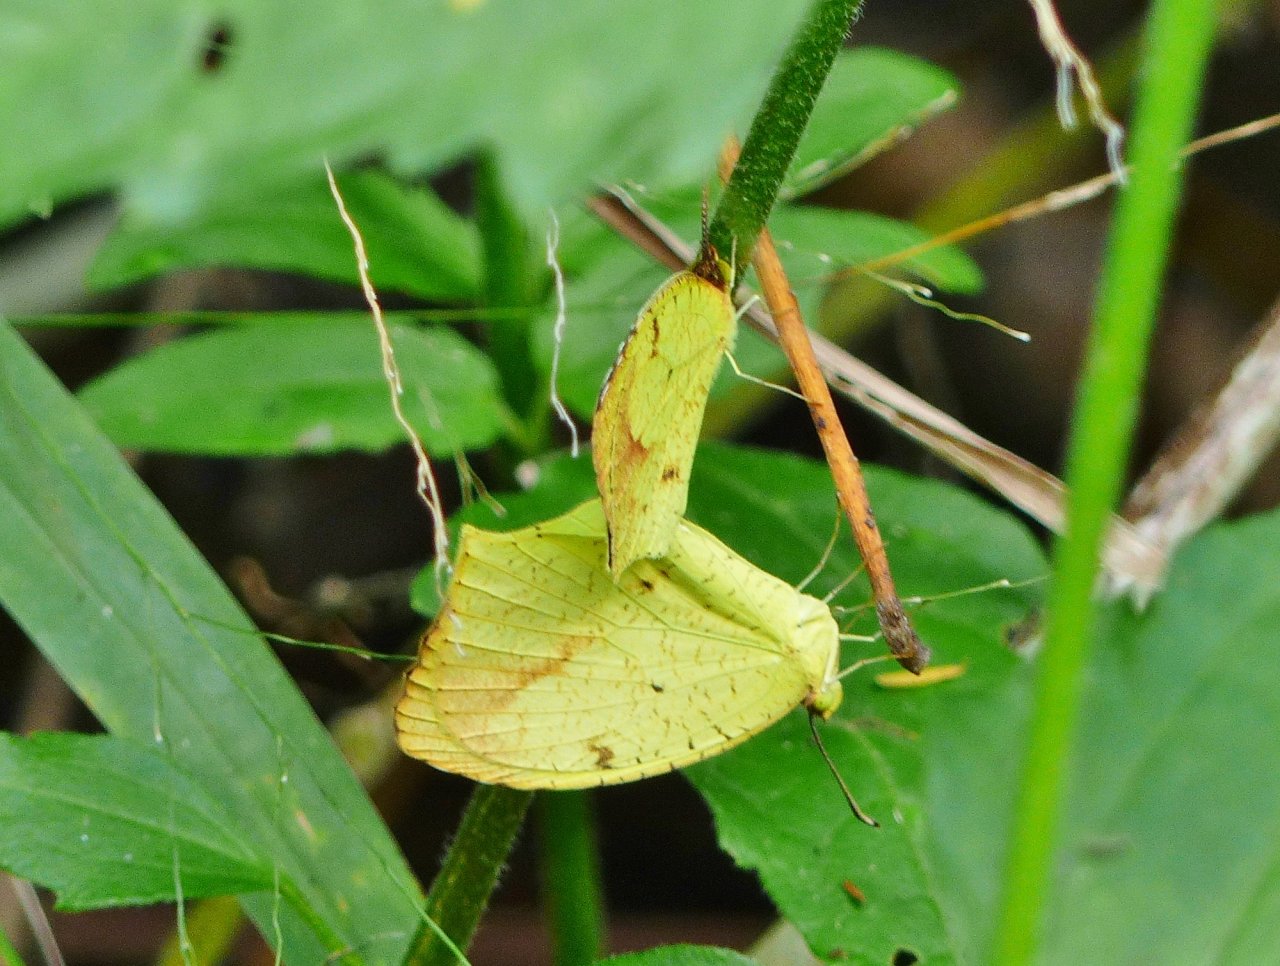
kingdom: Animalia
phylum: Arthropoda
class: Insecta
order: Lepidoptera
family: Pieridae
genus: Eurema
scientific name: Eurema boisduvaliana
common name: Boisduval's Yellow
